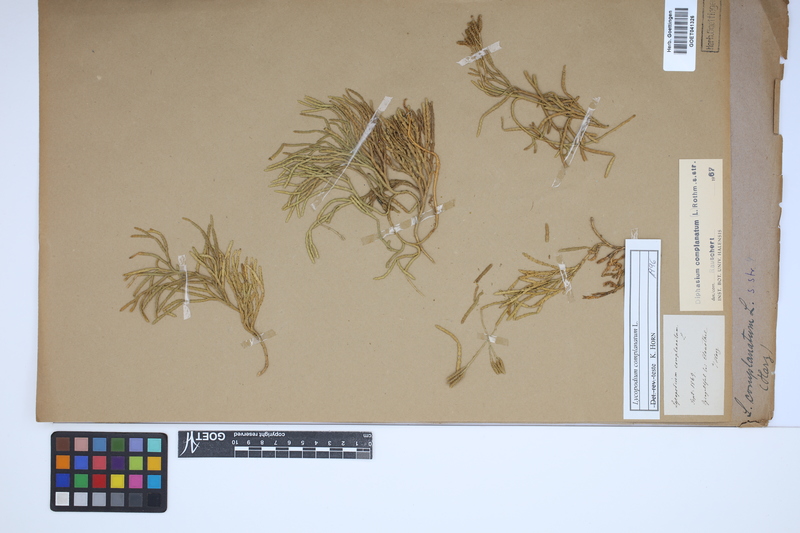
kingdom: Plantae
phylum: Tracheophyta
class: Lycopodiopsida
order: Lycopodiales
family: Lycopodiaceae
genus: Diphasiastrum
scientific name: Diphasiastrum complanatum
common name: Northern running-pine
